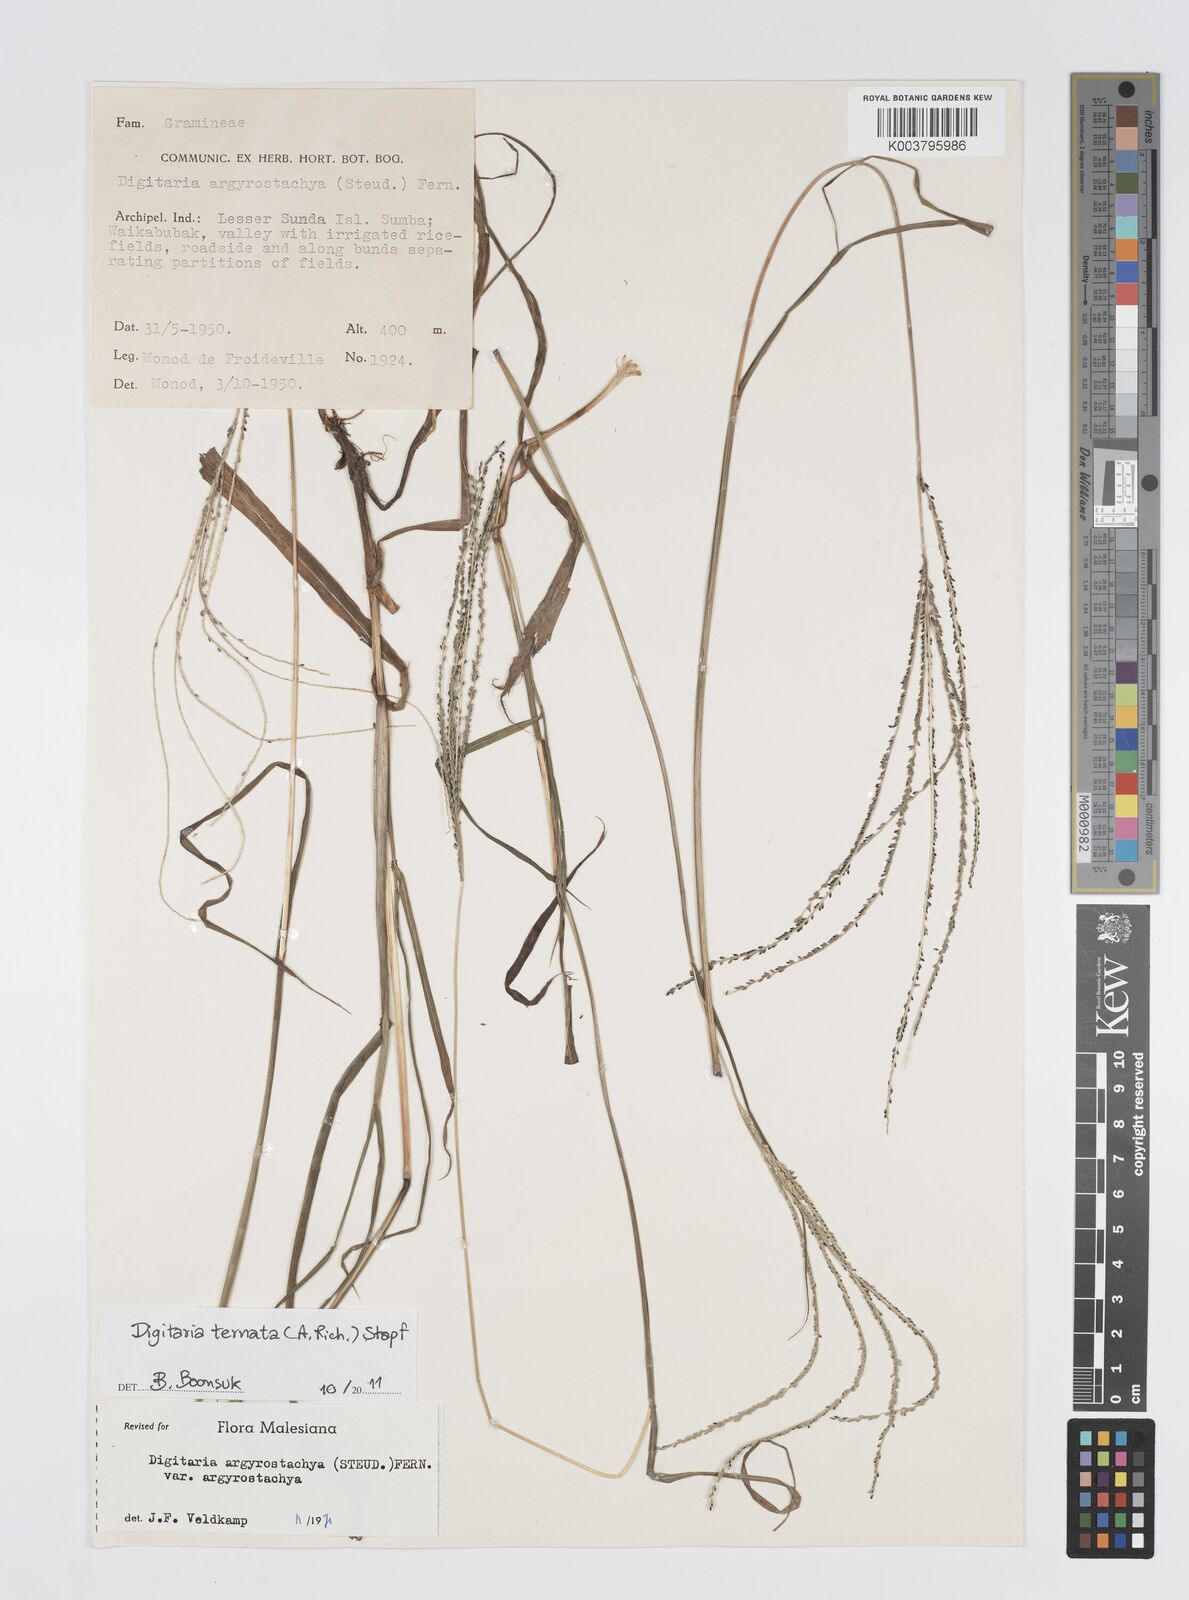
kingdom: Plantae
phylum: Tracheophyta
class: Liliopsida
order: Poales
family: Poaceae
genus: Digitaria
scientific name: Digitaria ternata
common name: Blackseed crabgrass
